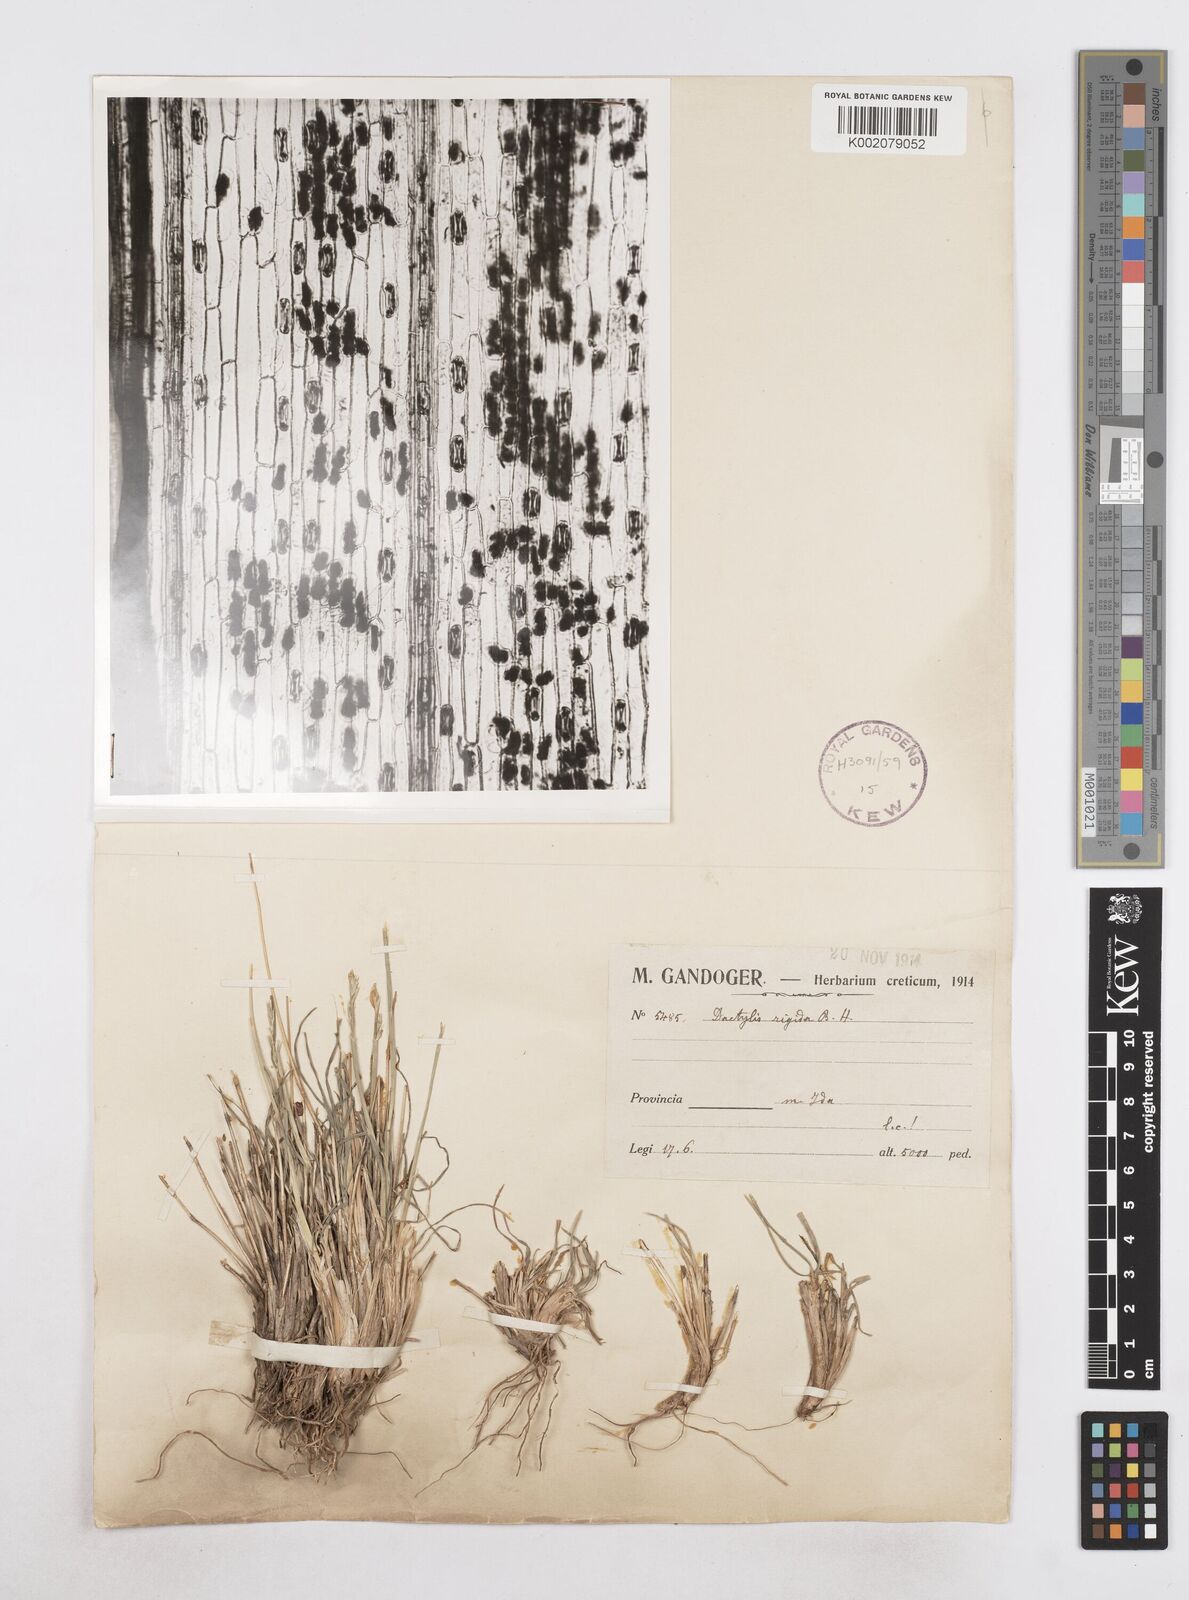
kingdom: Plantae
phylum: Tracheophyta
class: Liliopsida
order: Poales
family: Poaceae
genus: Dactylis
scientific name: Dactylis glomerata
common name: Orchardgrass
